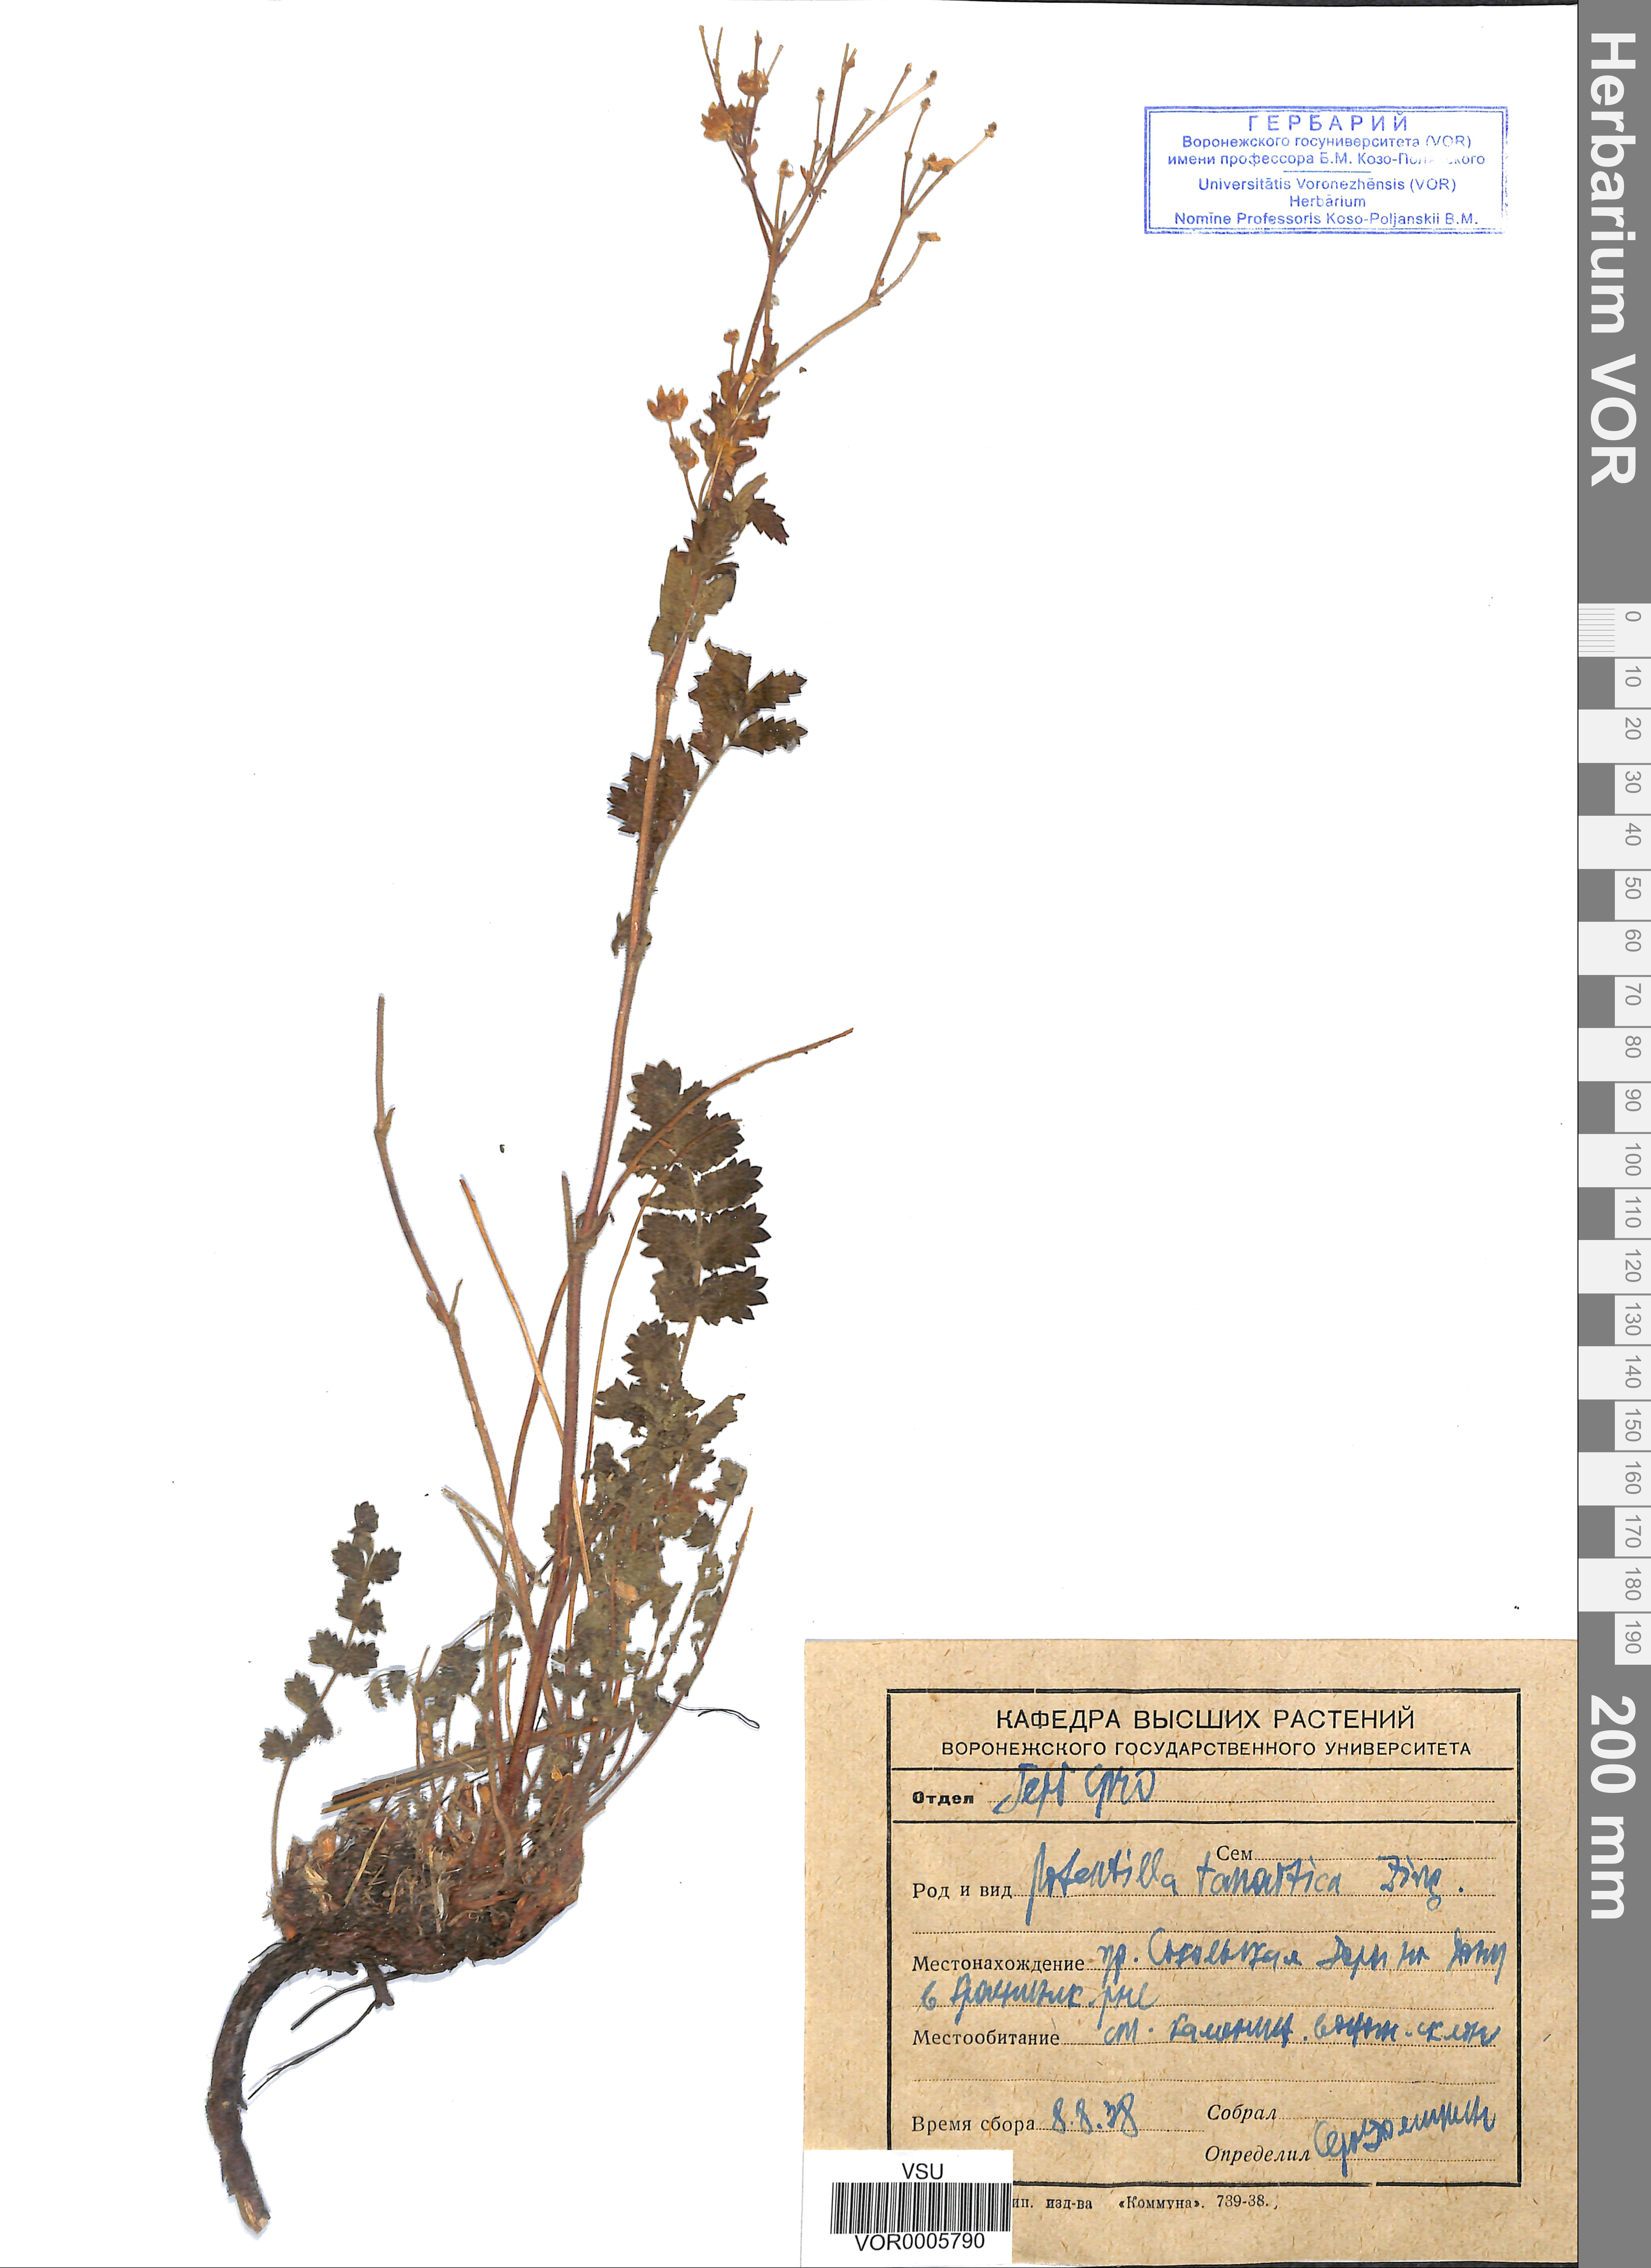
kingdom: Plantae
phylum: Tracheophyta
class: Magnoliopsida
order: Rosales
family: Rosaceae
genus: Potentilla
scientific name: Potentilla tanaitica
